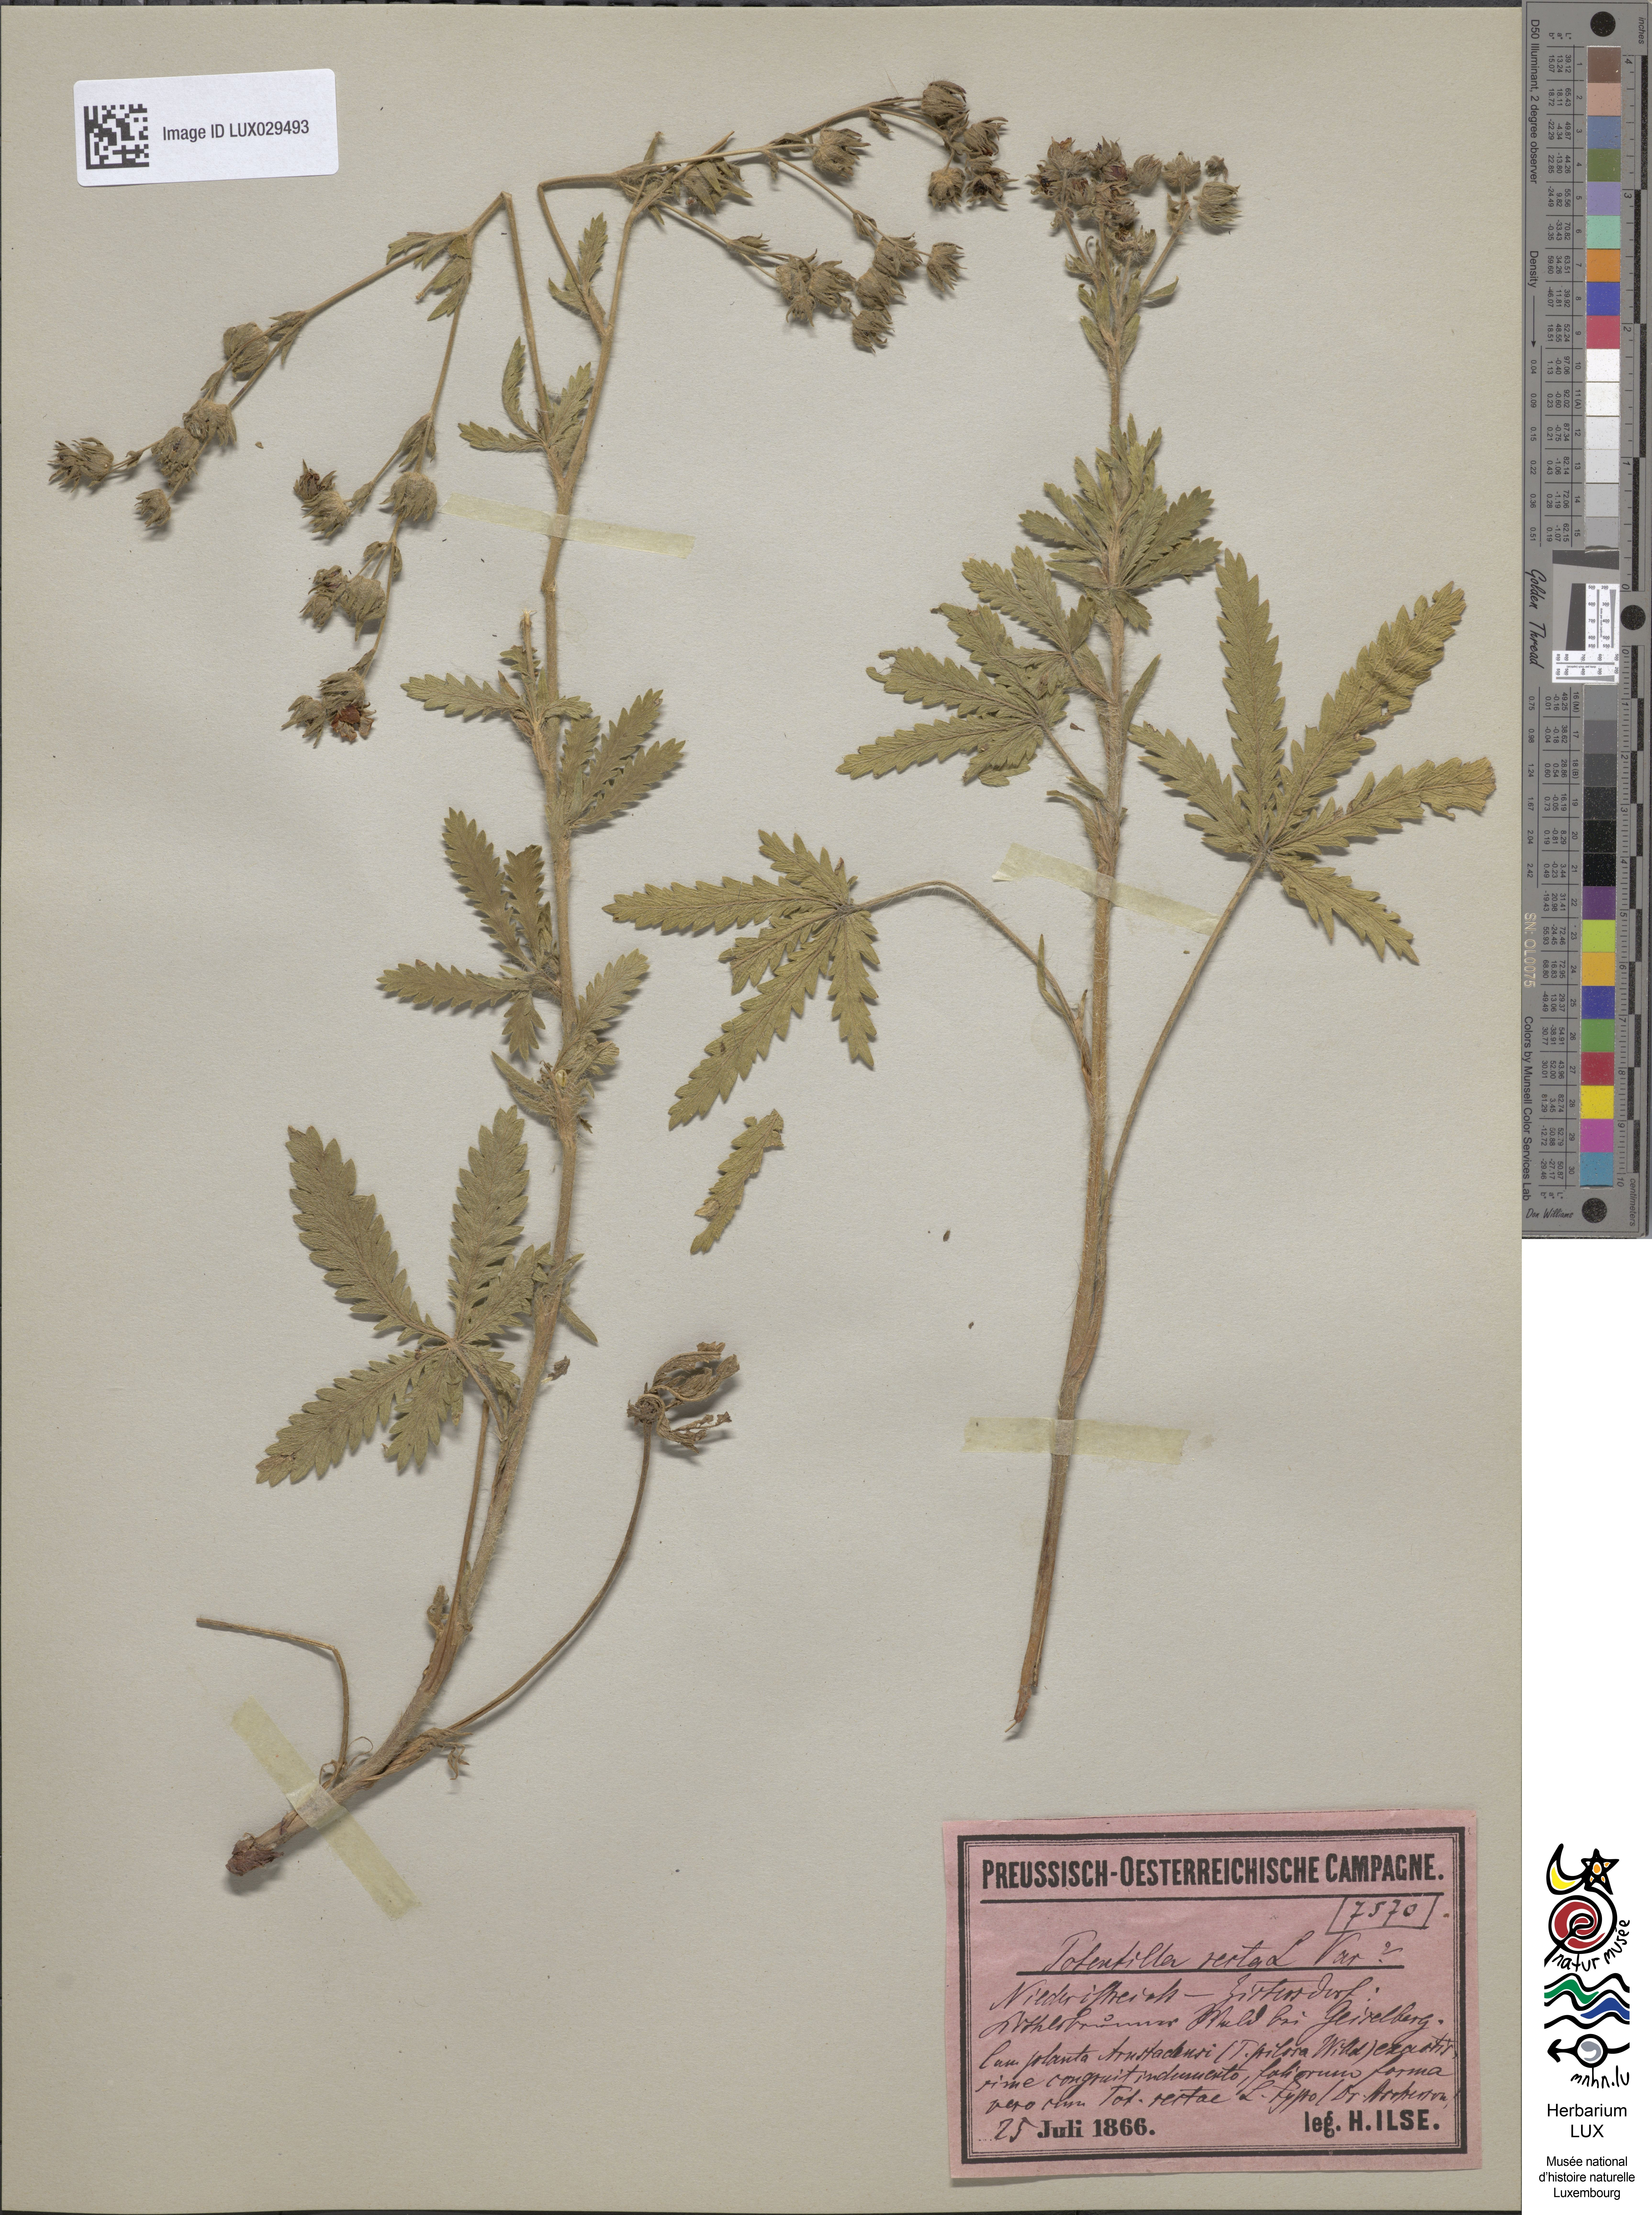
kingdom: Plantae
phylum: Tracheophyta
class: Magnoliopsida
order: Rosales
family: Rosaceae
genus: Potentilla
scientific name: Potentilla recta
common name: Sulphur cinquefoil
